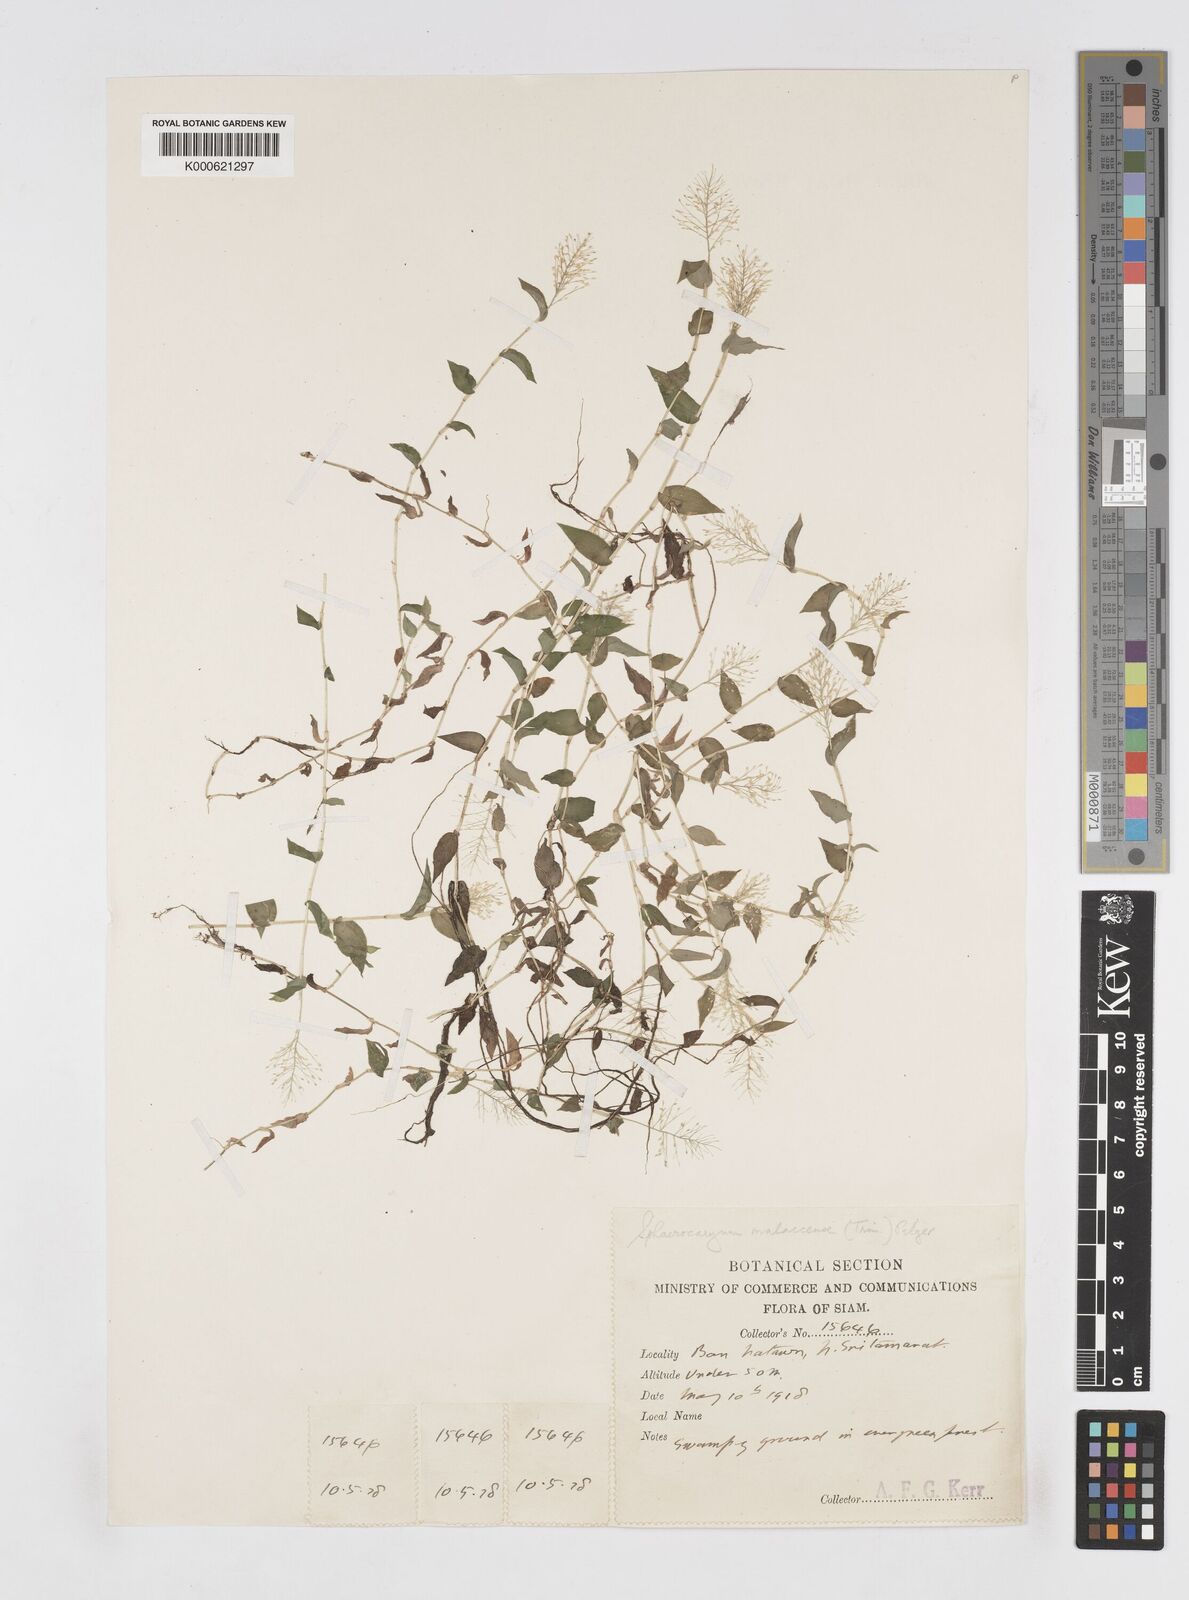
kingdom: Plantae
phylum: Tracheophyta
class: Liliopsida
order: Poales
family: Poaceae
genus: Sphaerocaryum
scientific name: Sphaerocaryum malaccense
